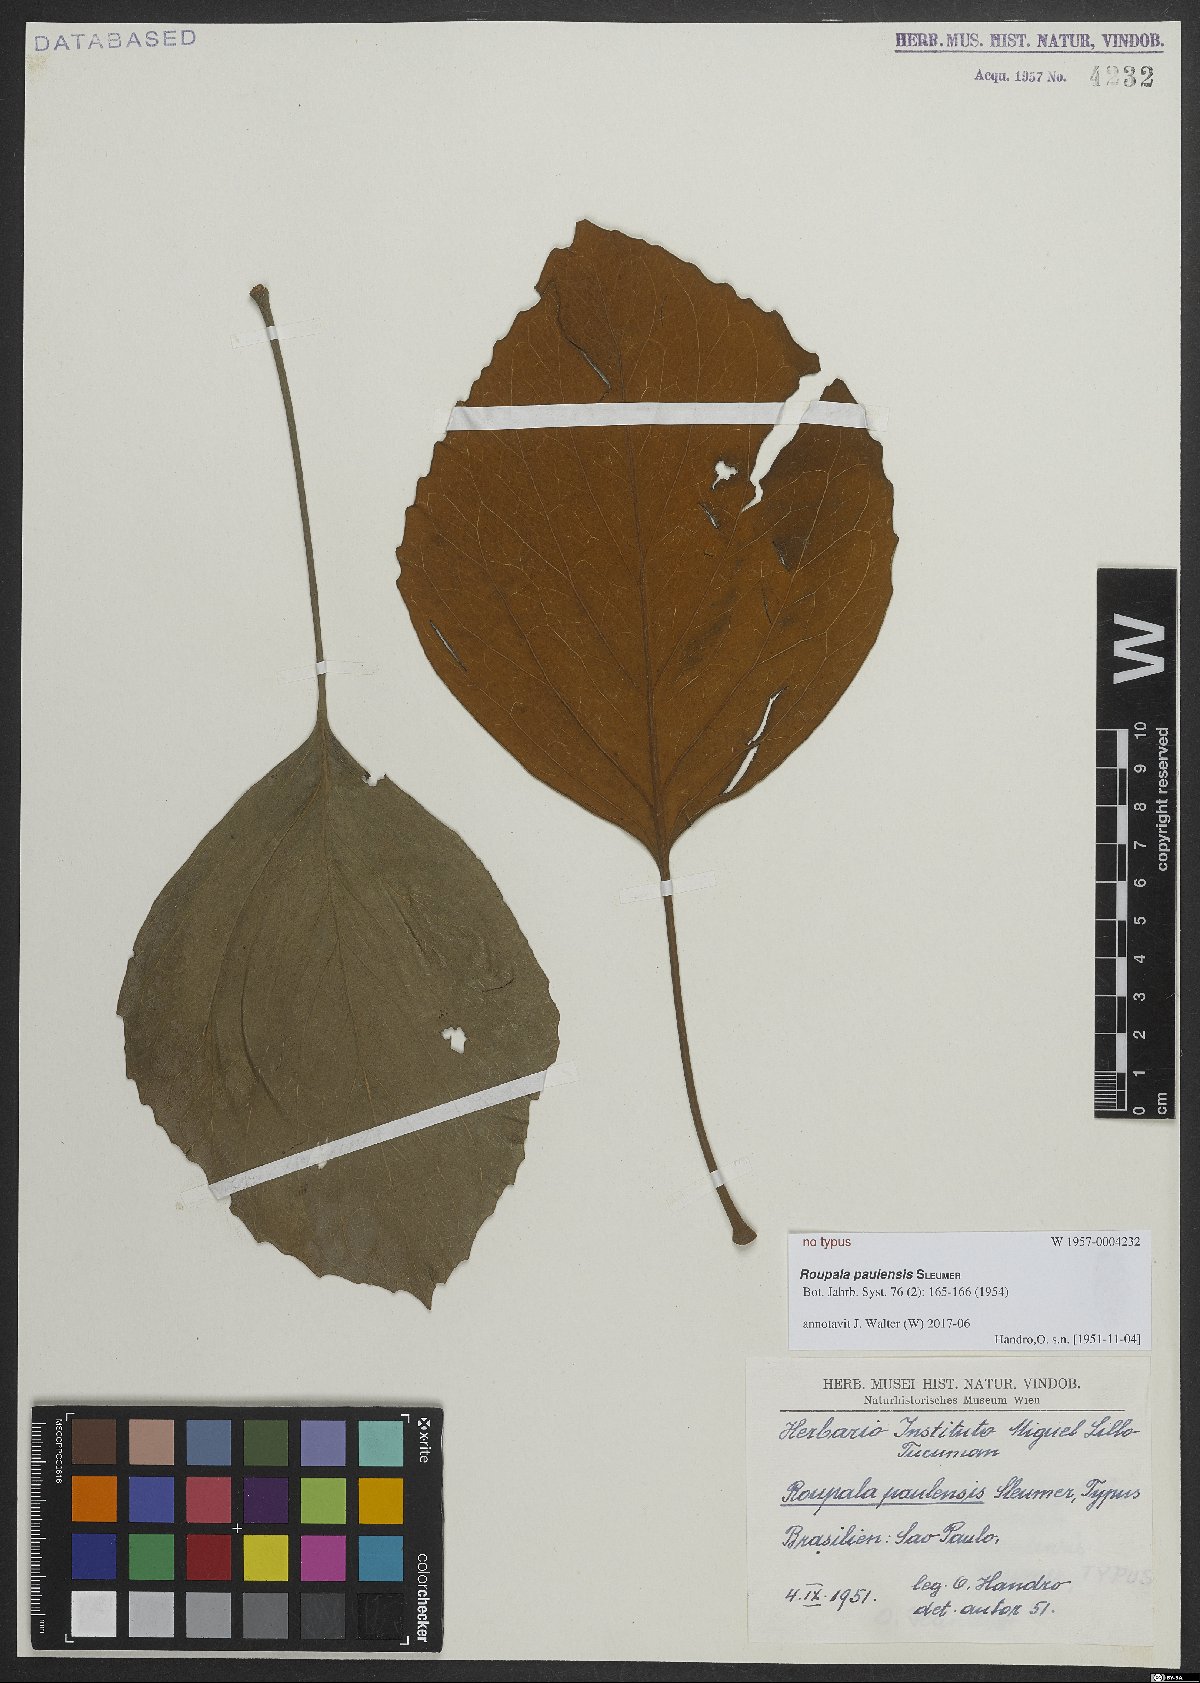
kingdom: Plantae
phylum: Tracheophyta
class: Magnoliopsida
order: Proteales
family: Proteaceae
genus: Roupala
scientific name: Roupala paulensis
